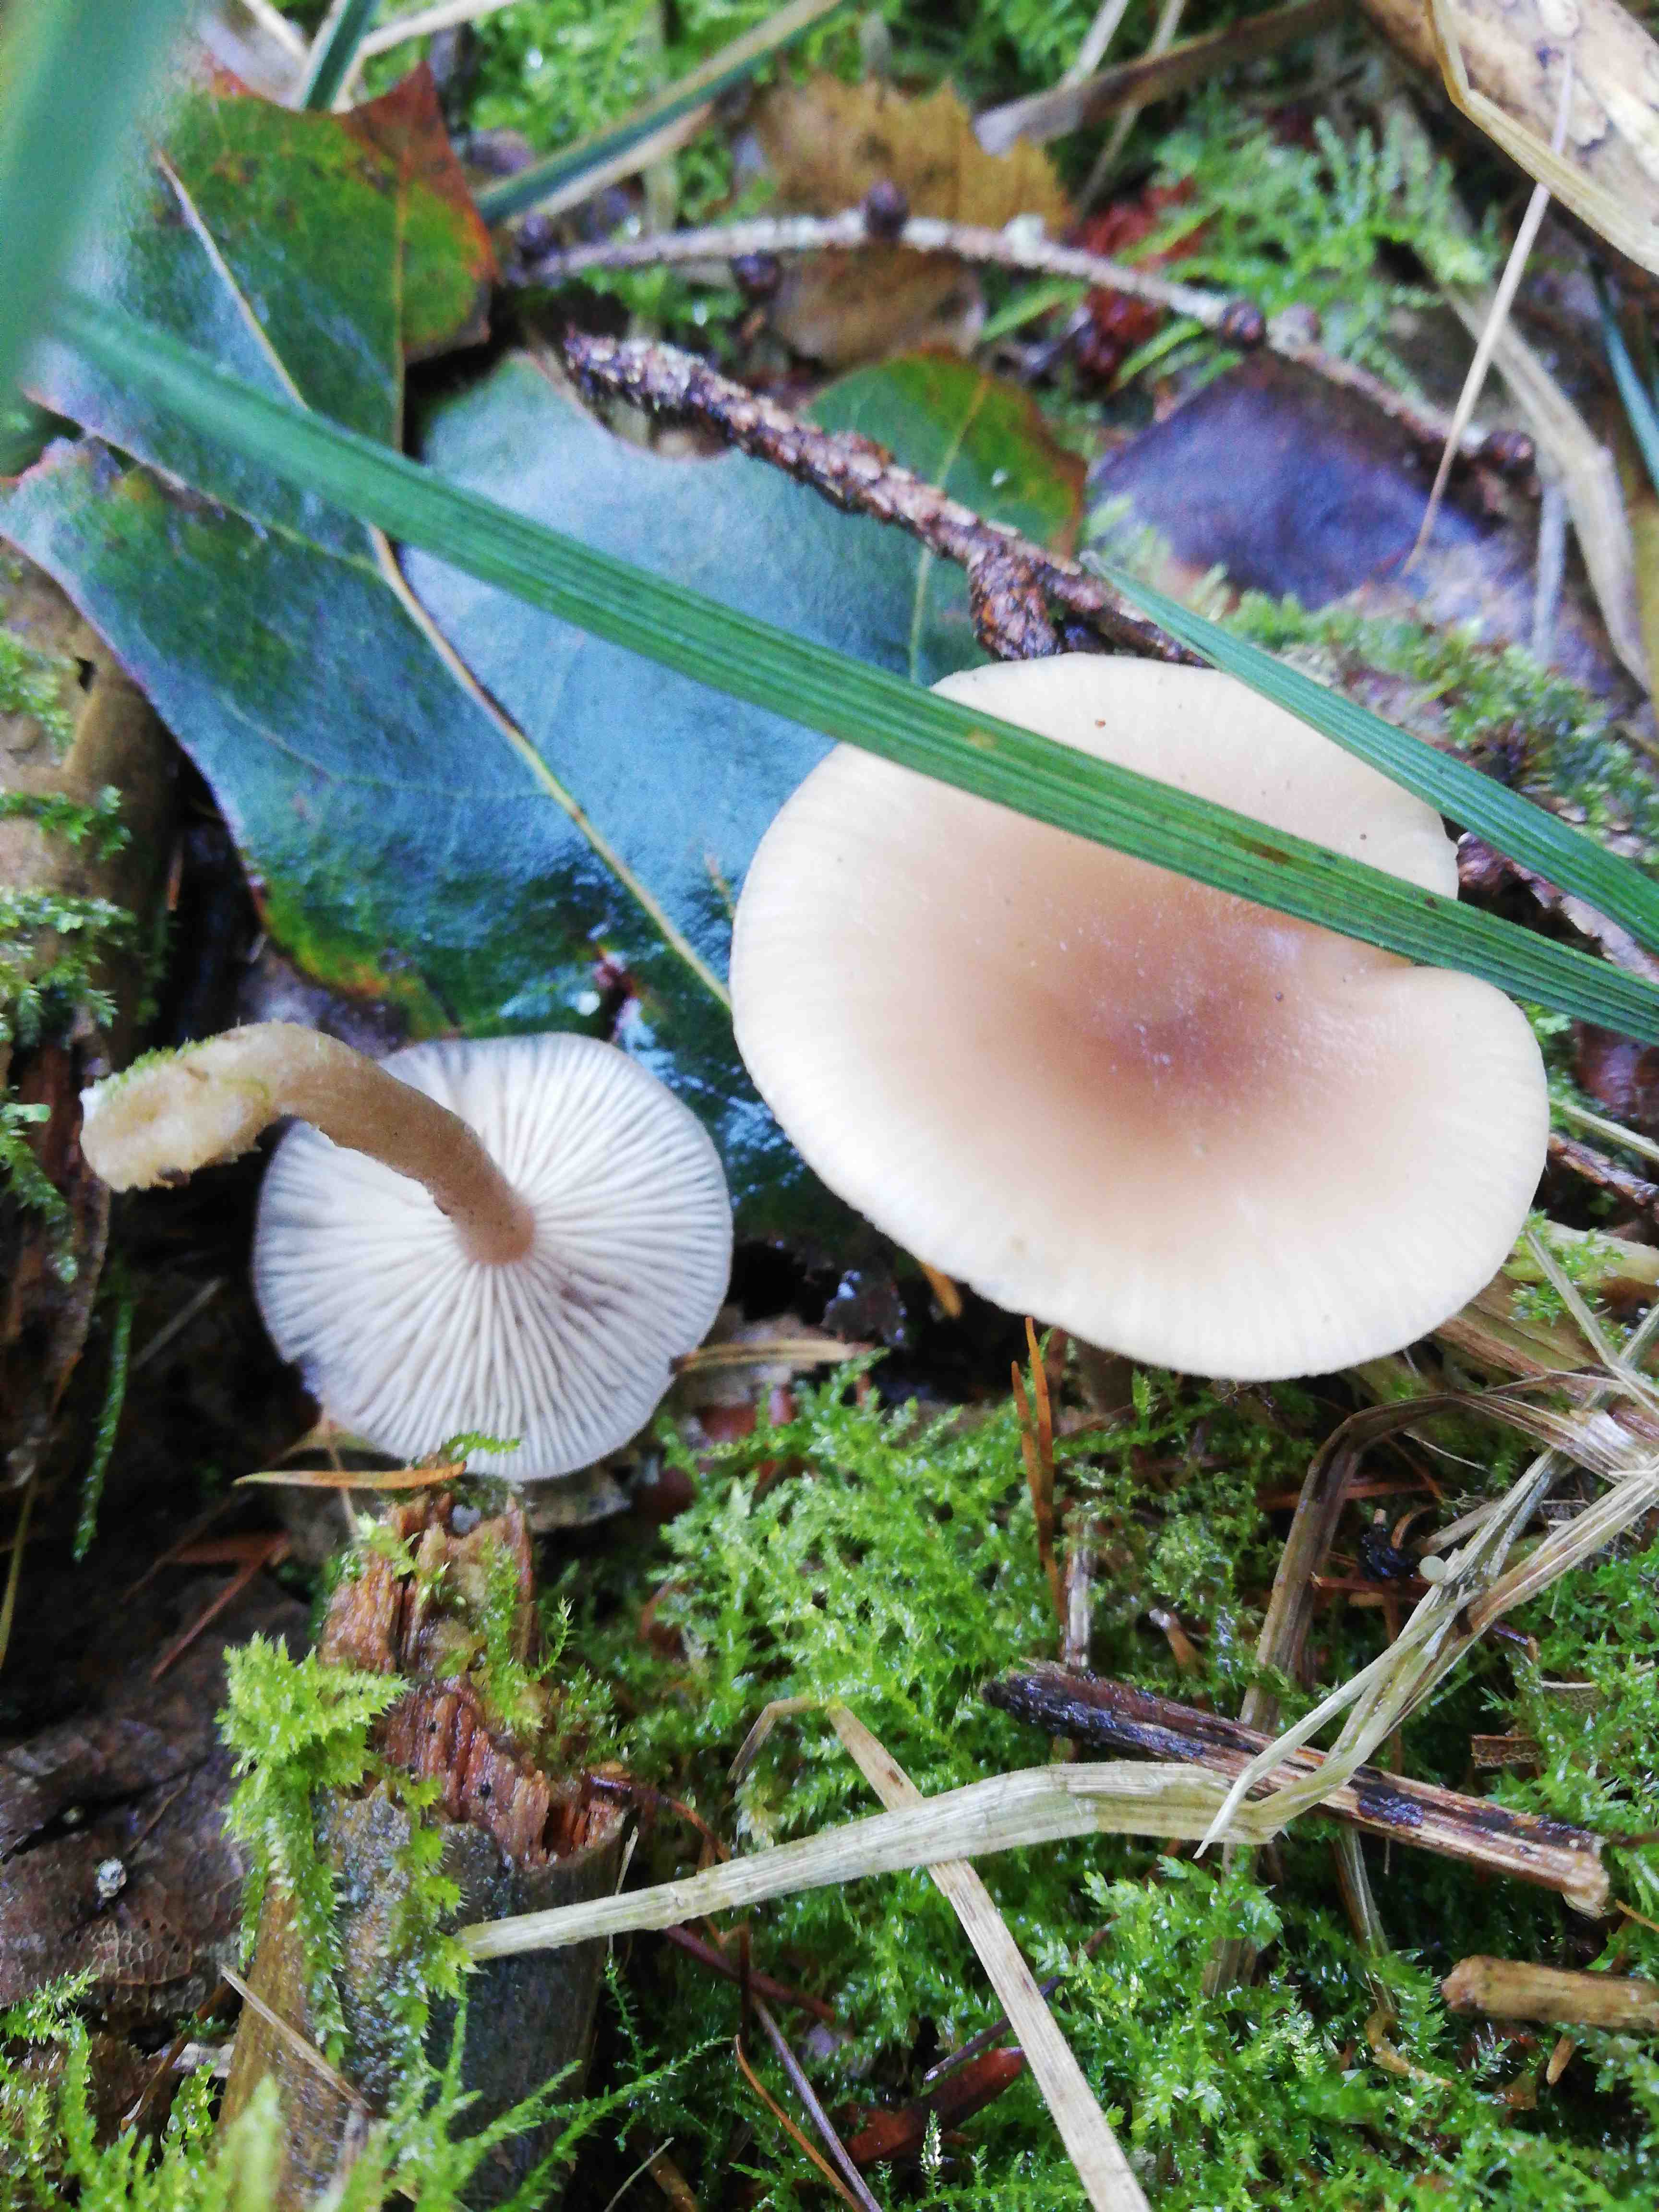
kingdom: Fungi
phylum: Basidiomycota
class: Agaricomycetes
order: Agaricales
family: Tricholomataceae
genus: Clitocybe
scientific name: Clitocybe fragrans
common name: vellugtende tragthat
